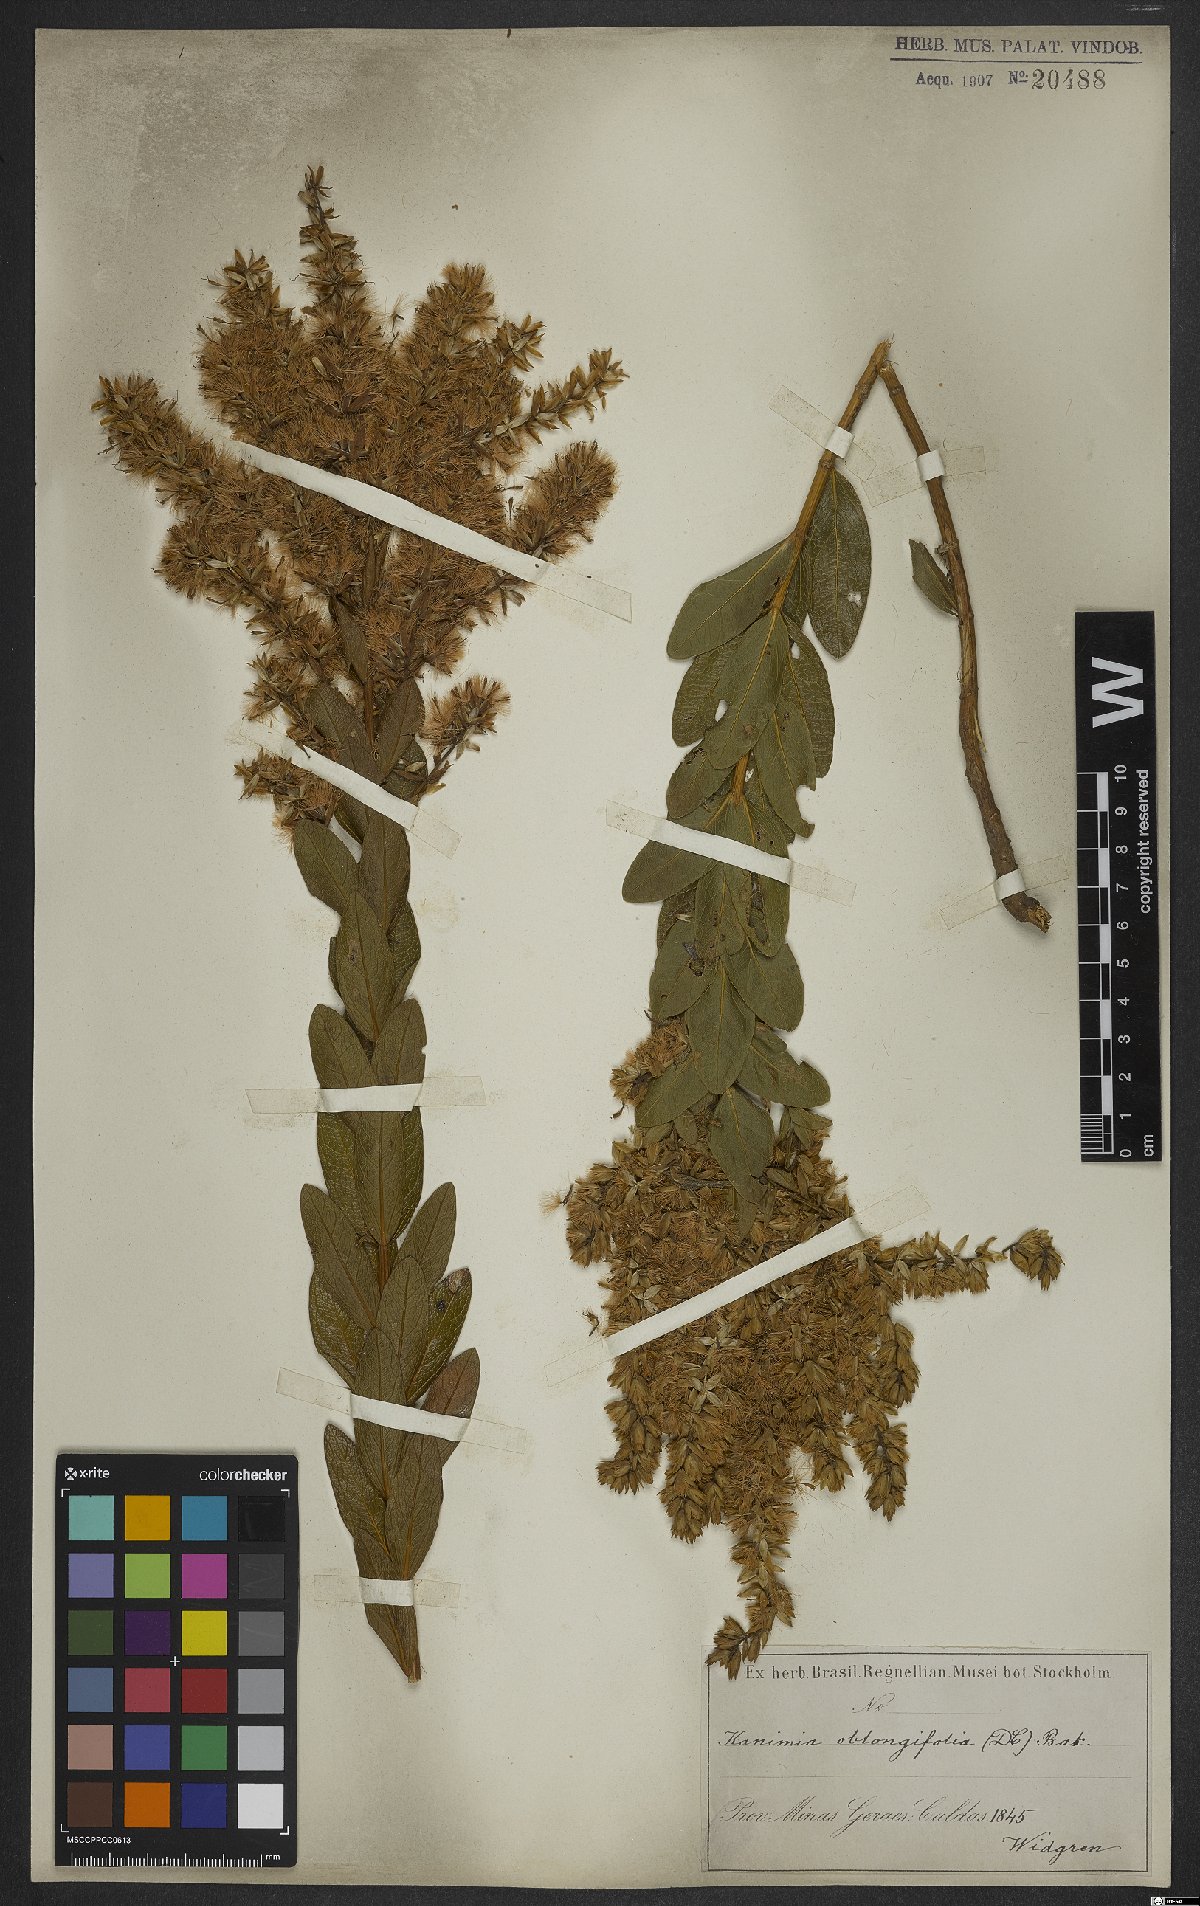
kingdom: Plantae
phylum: Tracheophyta
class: Magnoliopsida
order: Asterales
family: Asteraceae
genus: Mikania
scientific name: Mikania oblongifolia
